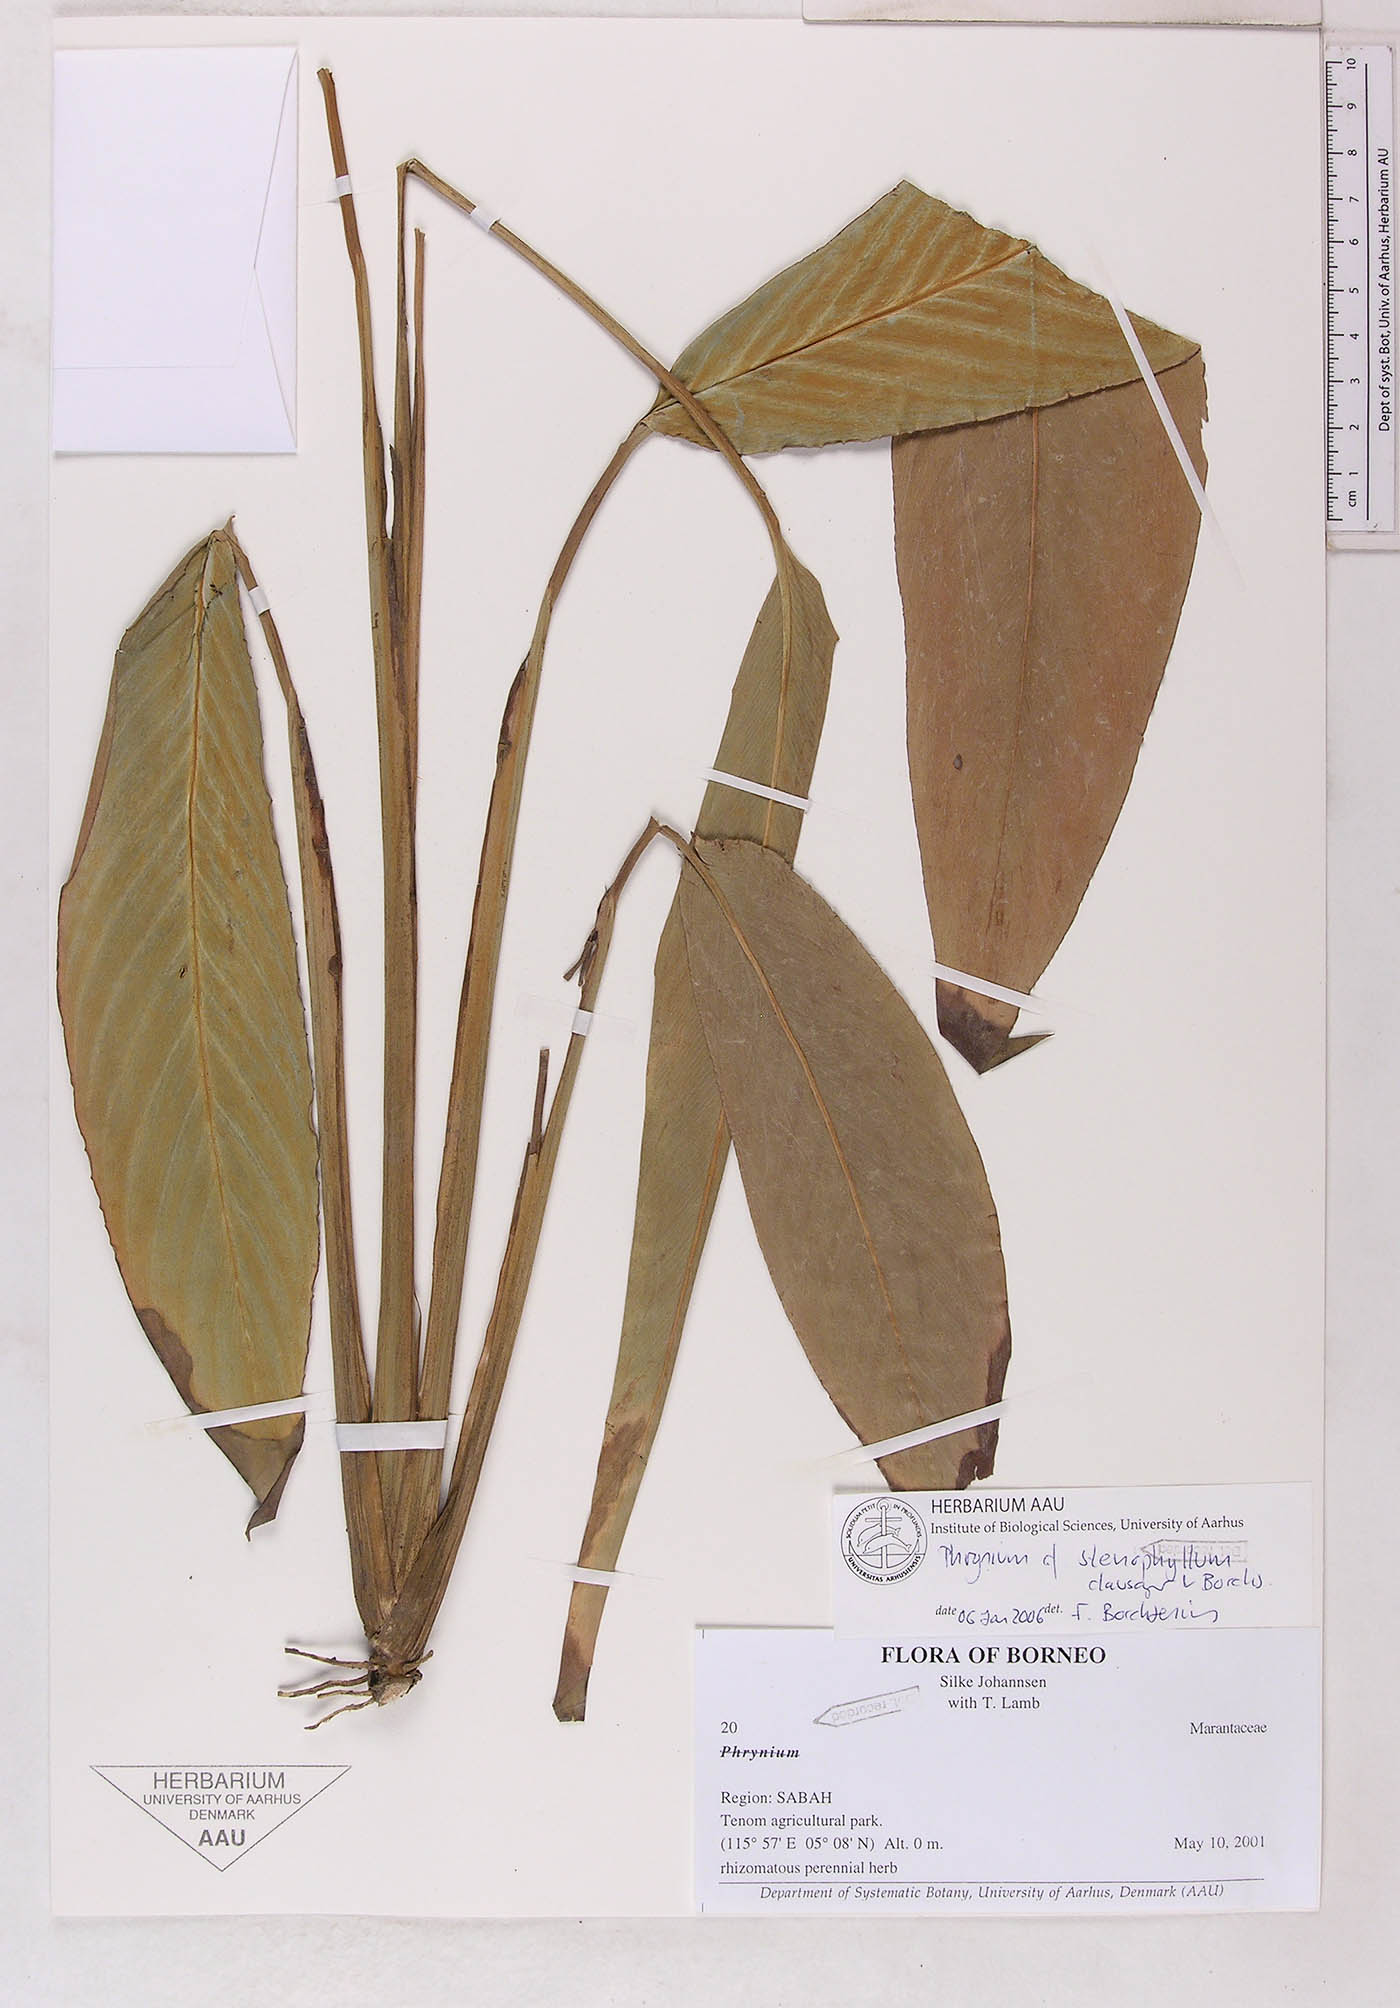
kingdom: Plantae
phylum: Tracheophyta
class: Liliopsida
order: Zingiberales
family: Marantaceae
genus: Phrynium
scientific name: Phrynium stenophyllum
